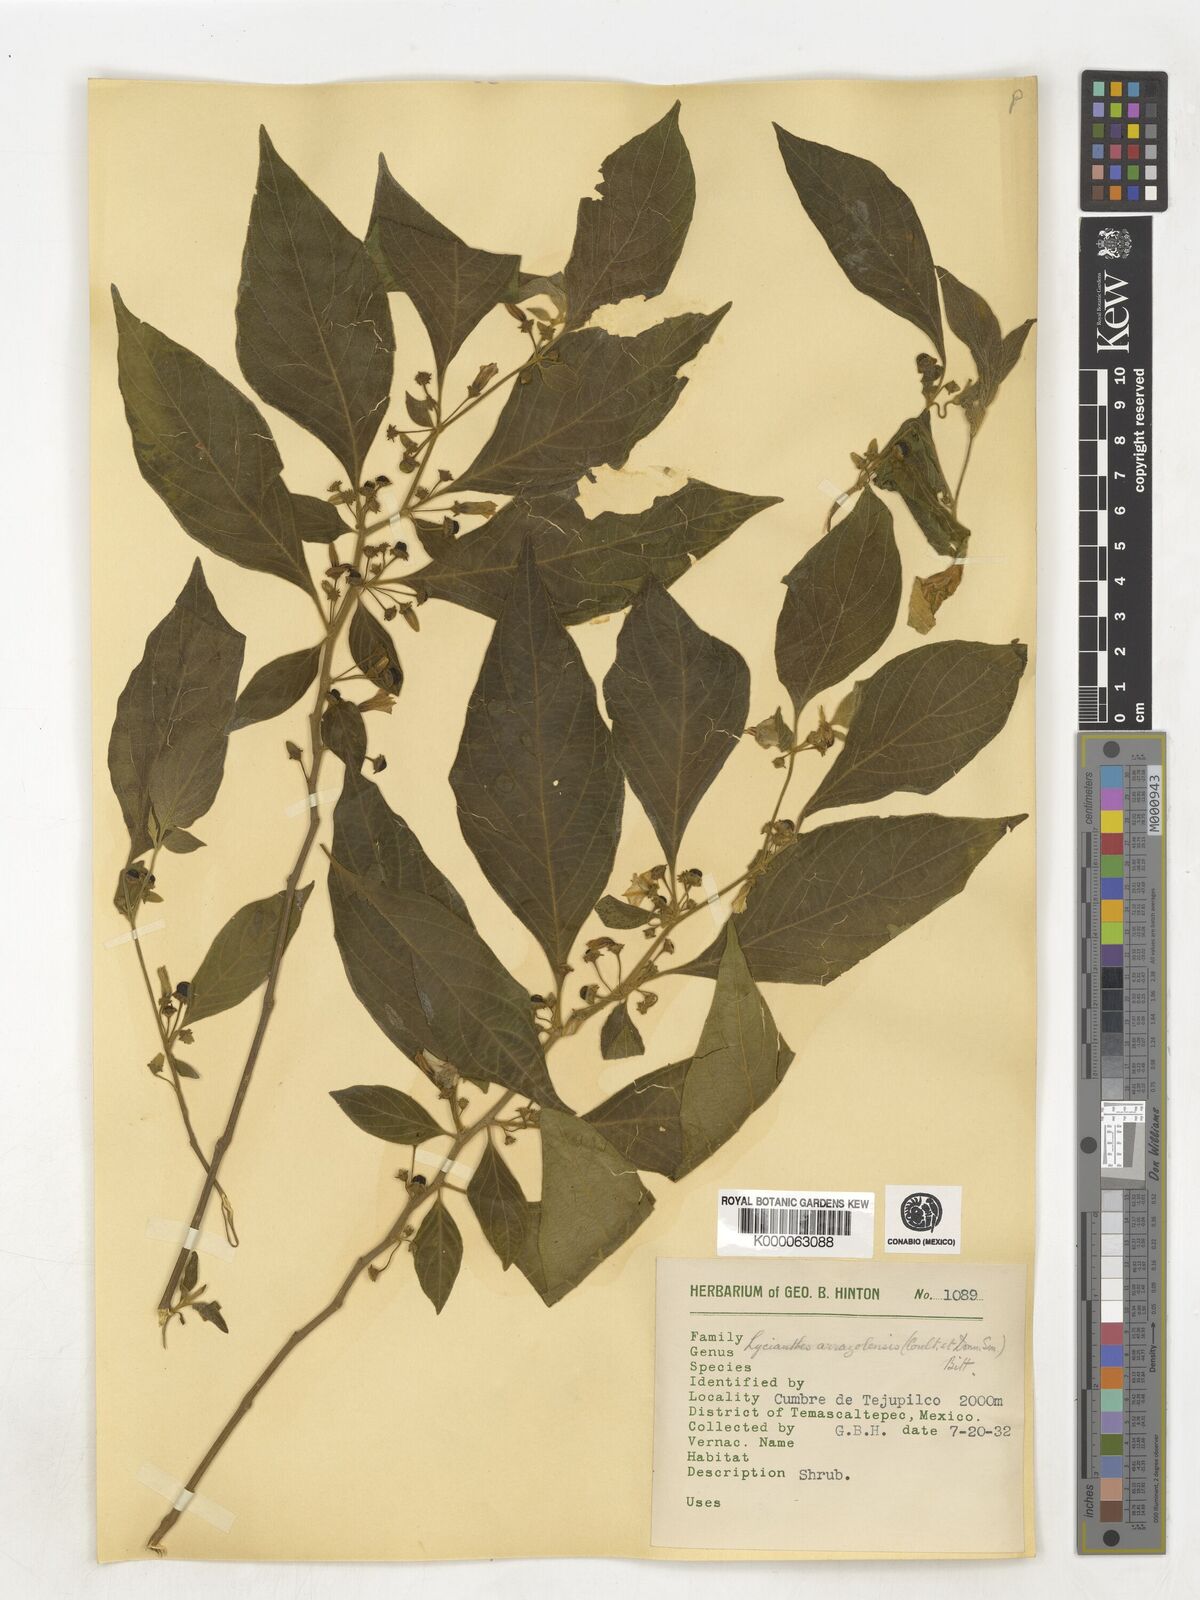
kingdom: Plantae
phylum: Tracheophyta
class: Magnoliopsida
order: Solanales
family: Solanaceae
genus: Lycianthes
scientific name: Lycianthes
